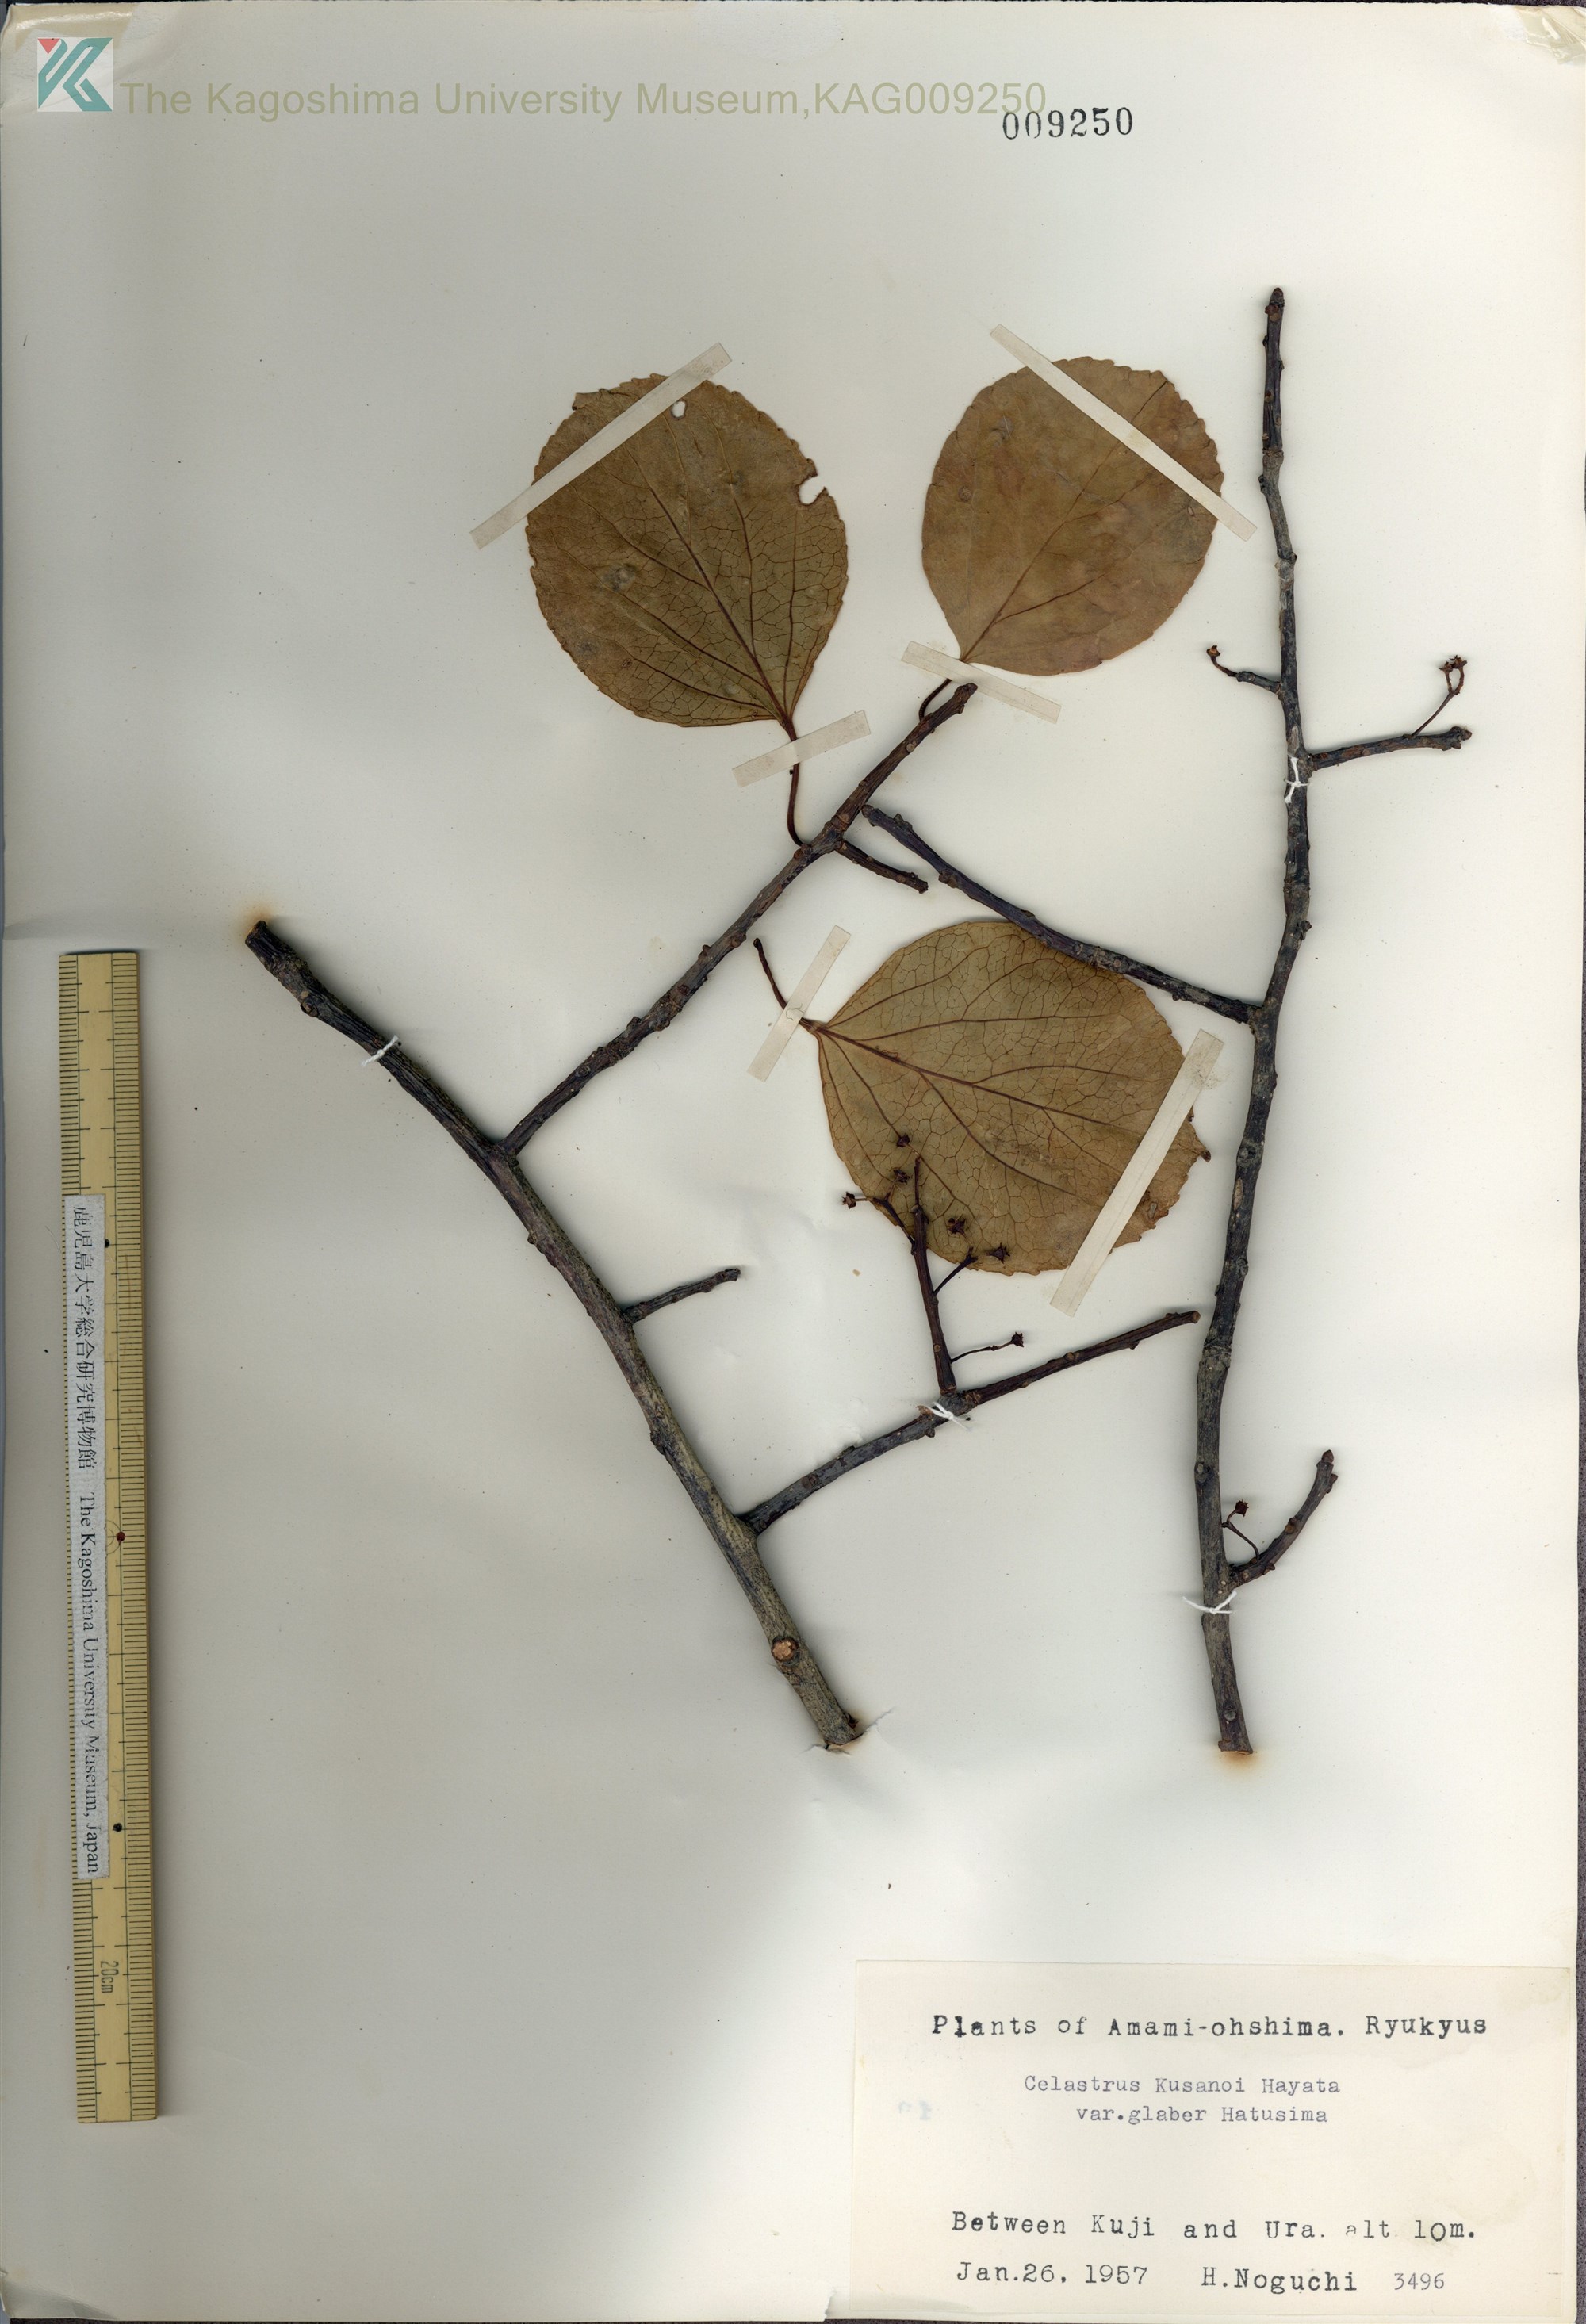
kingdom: Plantae
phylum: Tracheophyta
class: Magnoliopsida
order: Celastrales
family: Celastraceae
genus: Celastrus
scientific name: Celastrus hypoleucus
